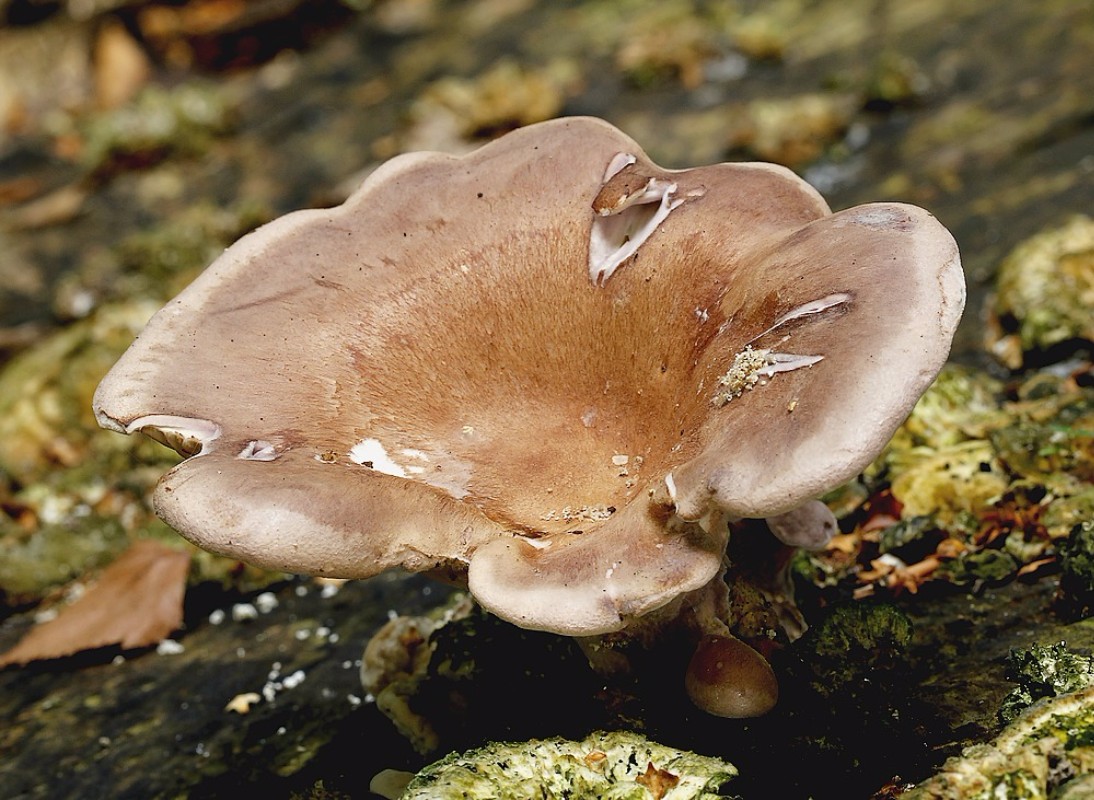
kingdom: Fungi
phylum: Basidiomycota
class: Agaricomycetes
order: Polyporales
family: Panaceae
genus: Panus
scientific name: Panus conchatus
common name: filtstokket læderhat
